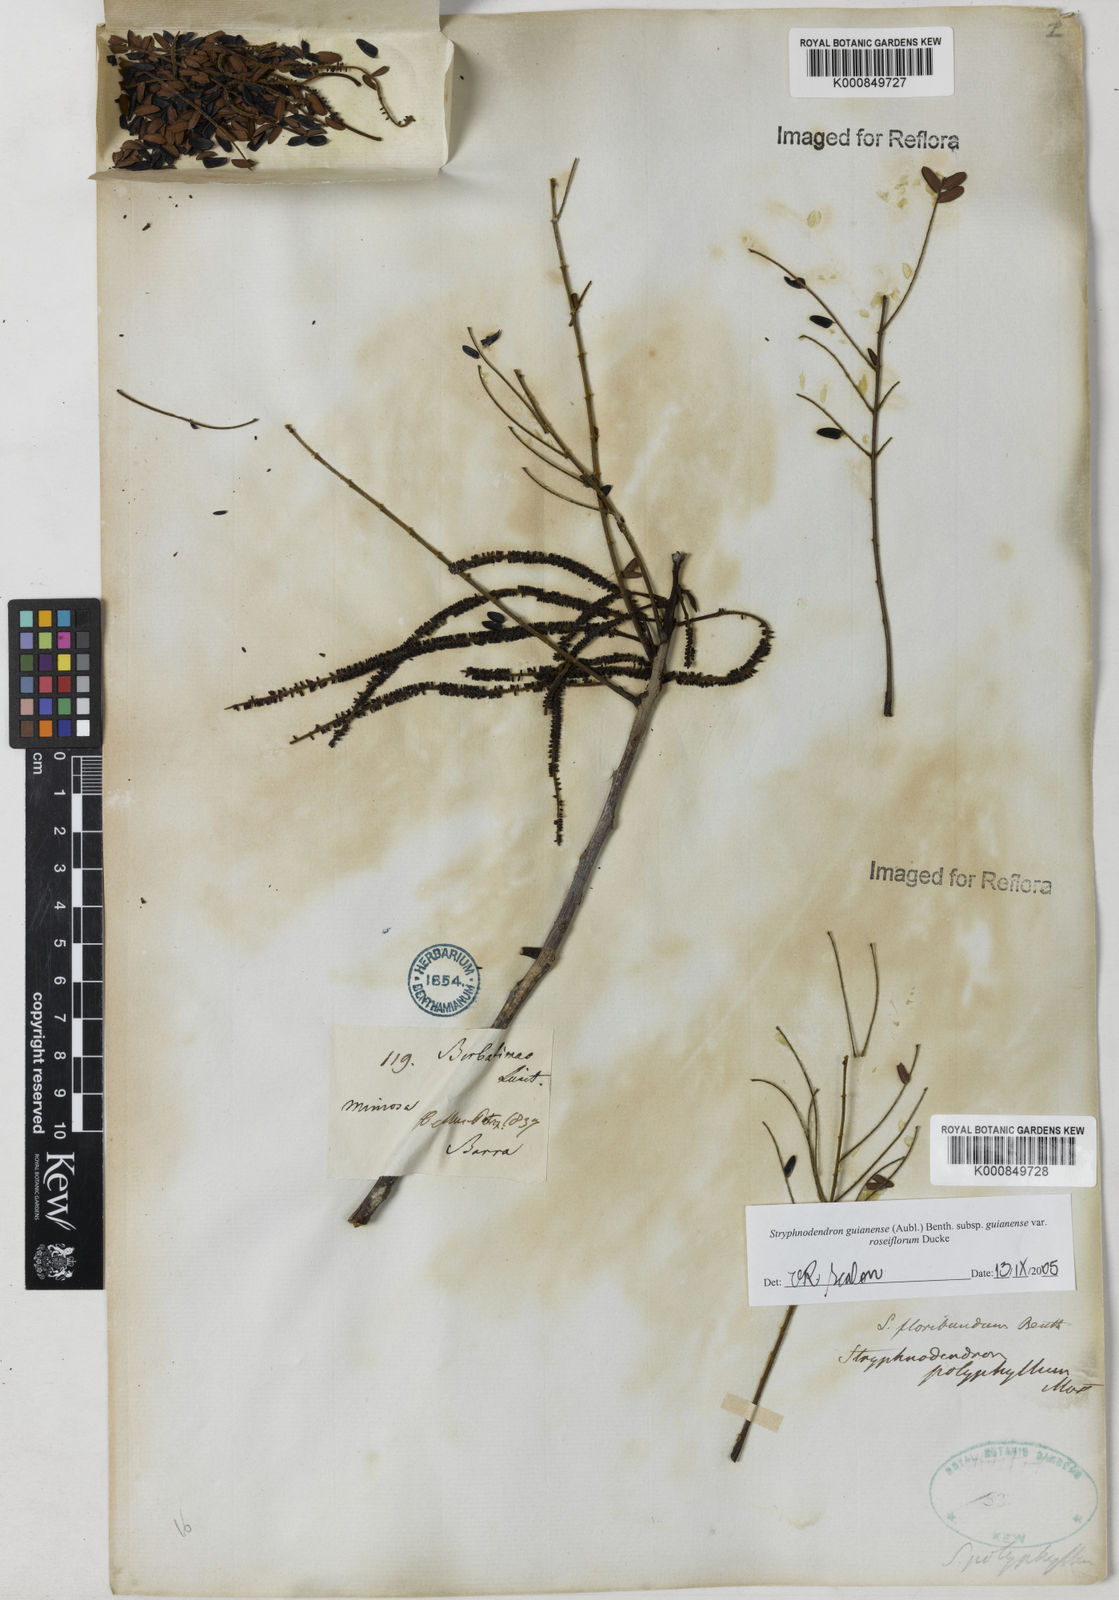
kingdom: Plantae
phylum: Tracheophyta
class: Magnoliopsida
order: Fabales
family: Fabaceae
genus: Stryphnodendron
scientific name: Stryphnodendron guianense
